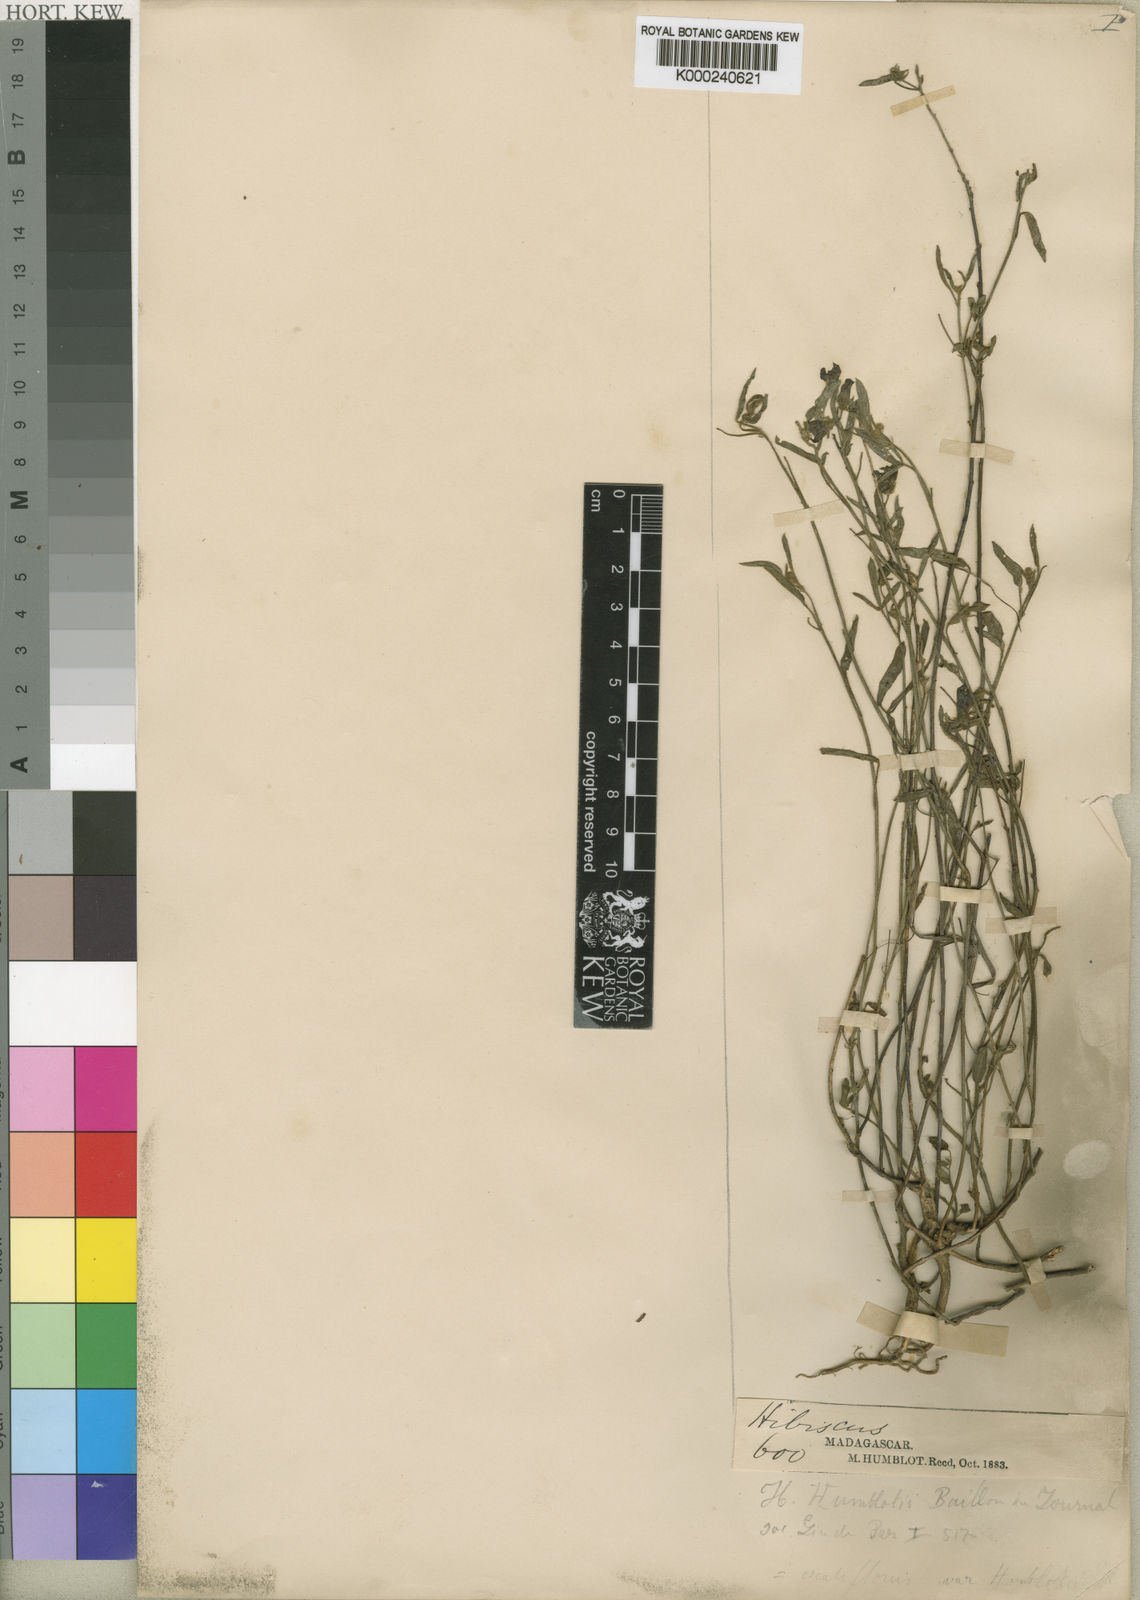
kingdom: Plantae
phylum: Tracheophyta
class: Magnoliopsida
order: Malvales
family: Malvaceae
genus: Hibiscus
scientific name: Hibiscus
